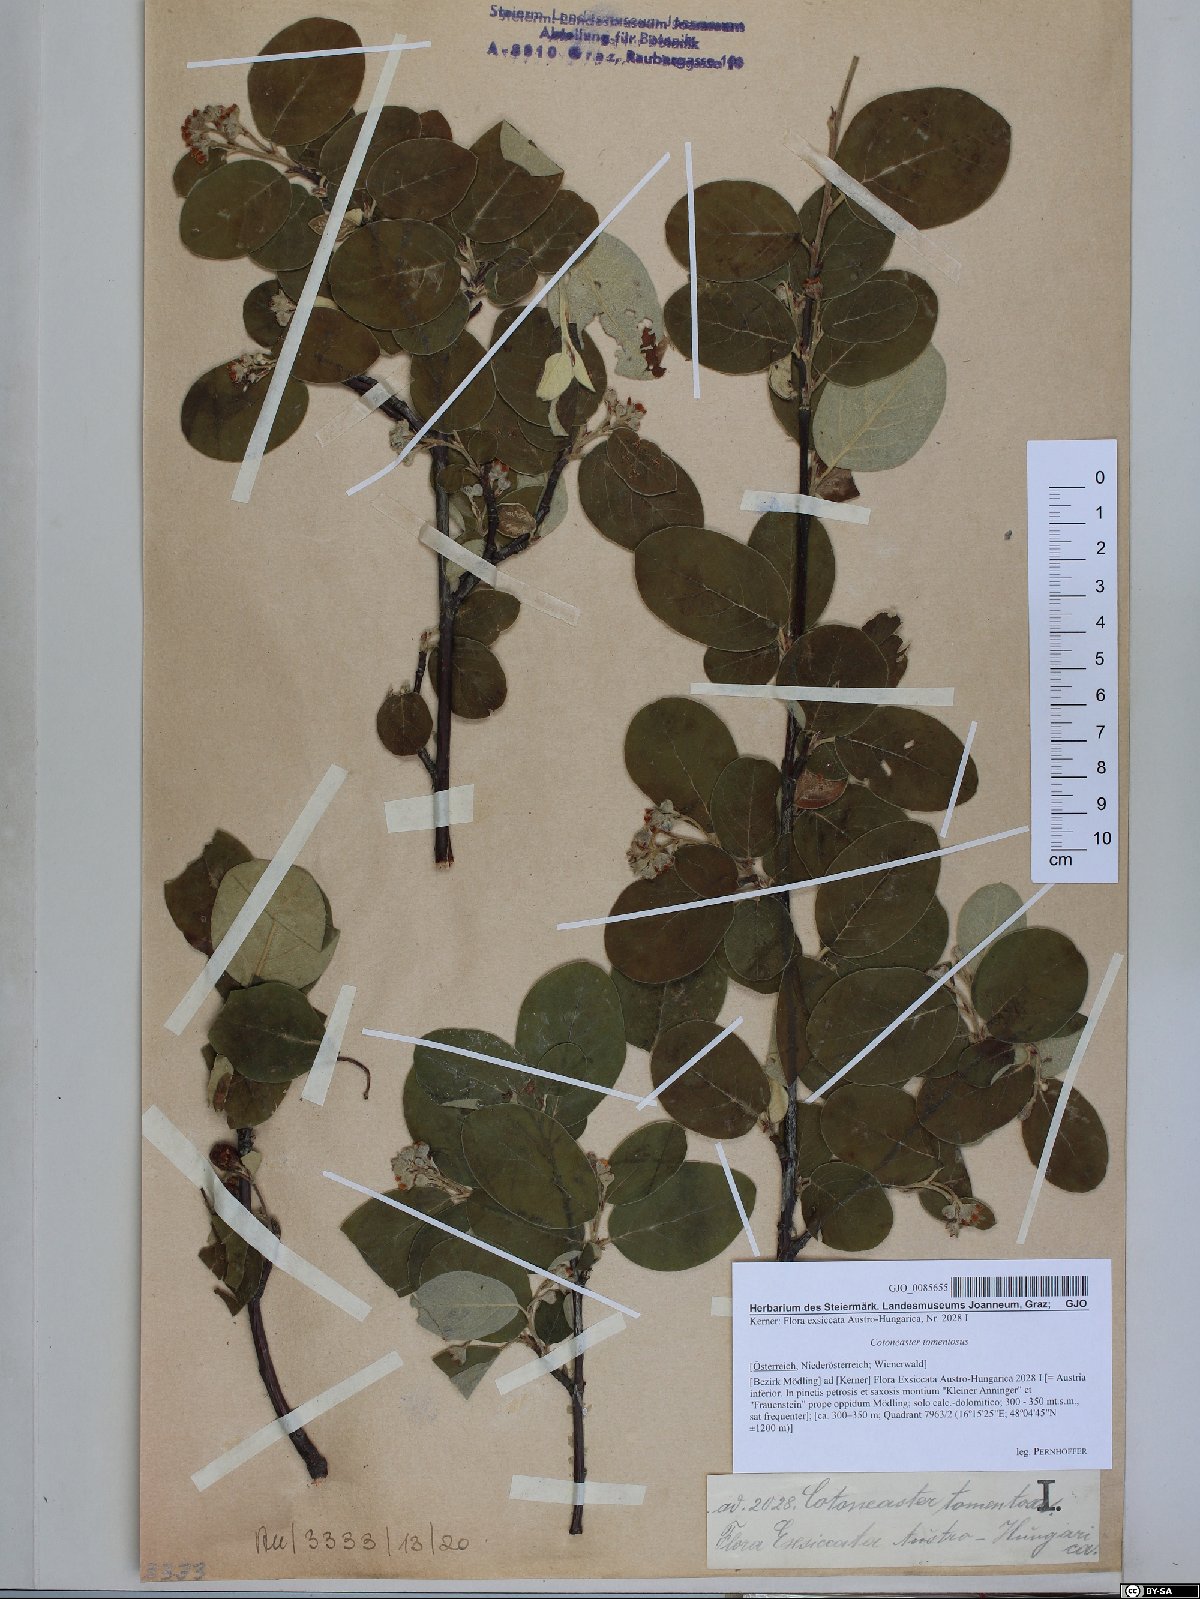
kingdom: Plantae
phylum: Tracheophyta
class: Magnoliopsida
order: Rosales
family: Rosaceae
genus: Cotoneaster
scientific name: Cotoneaster tomentosus
